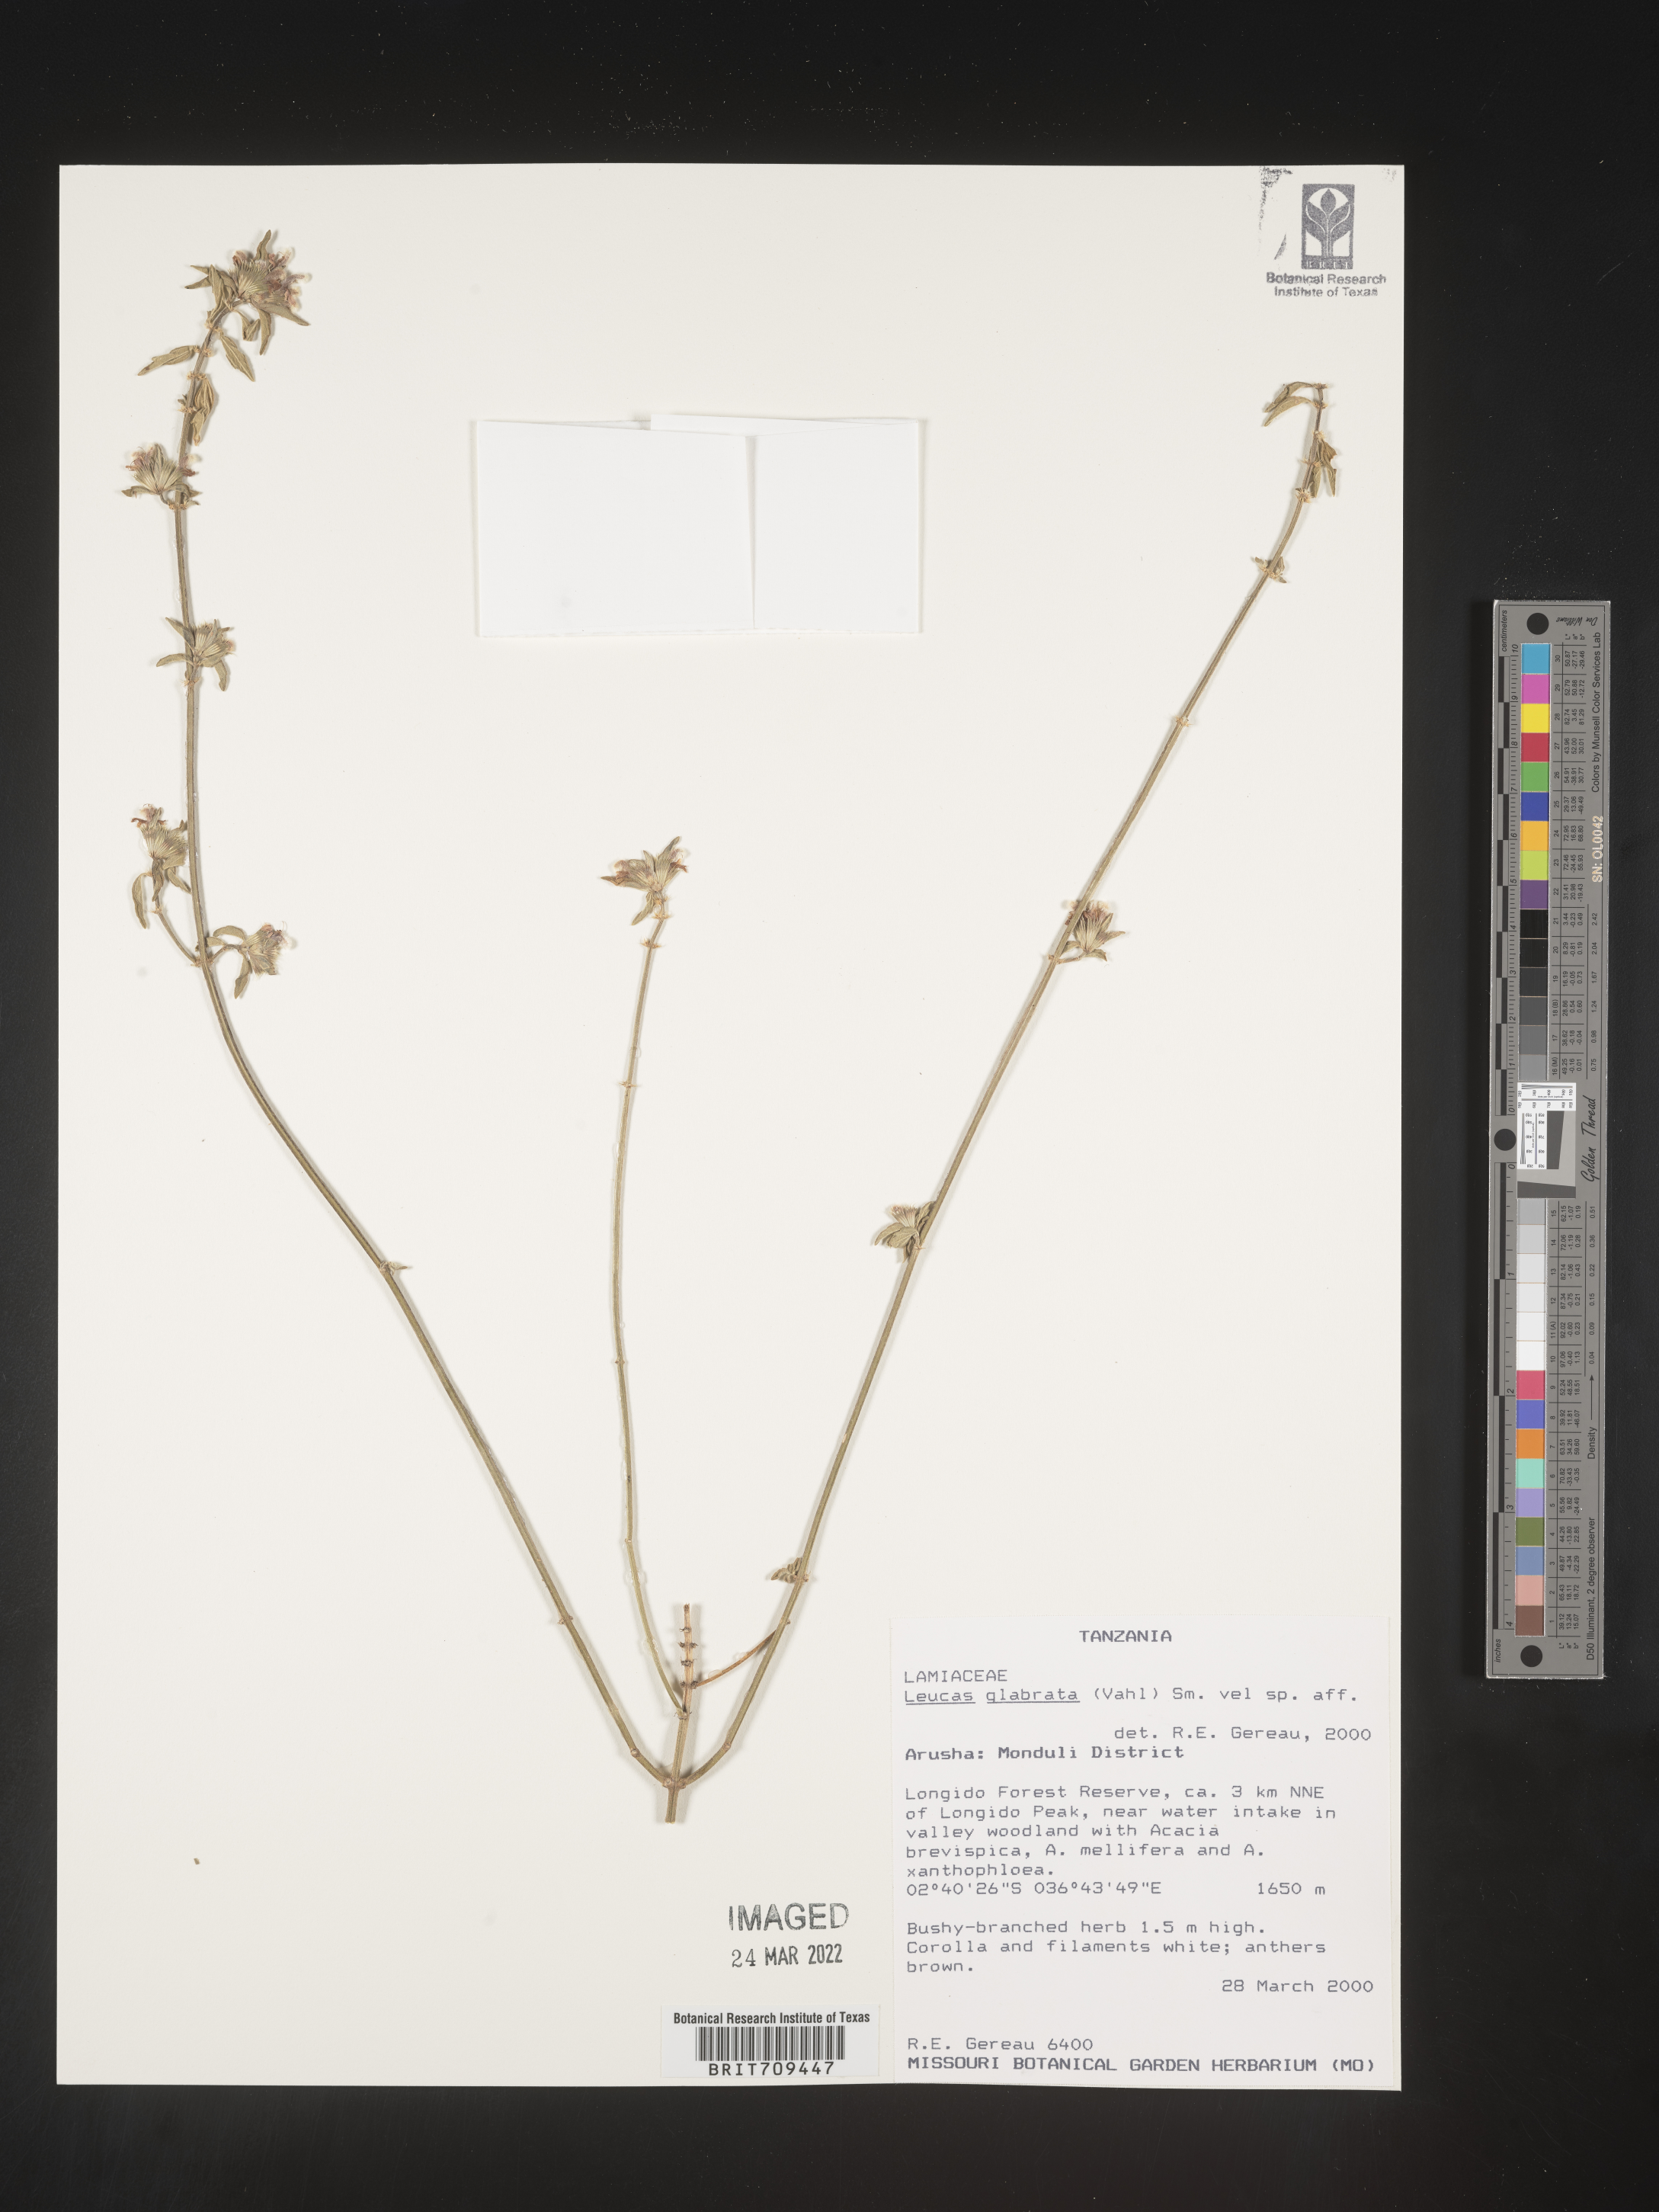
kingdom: Plantae
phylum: Tracheophyta
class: Magnoliopsida
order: Lamiales
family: Lamiaceae
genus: Leucas
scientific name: Leucas
